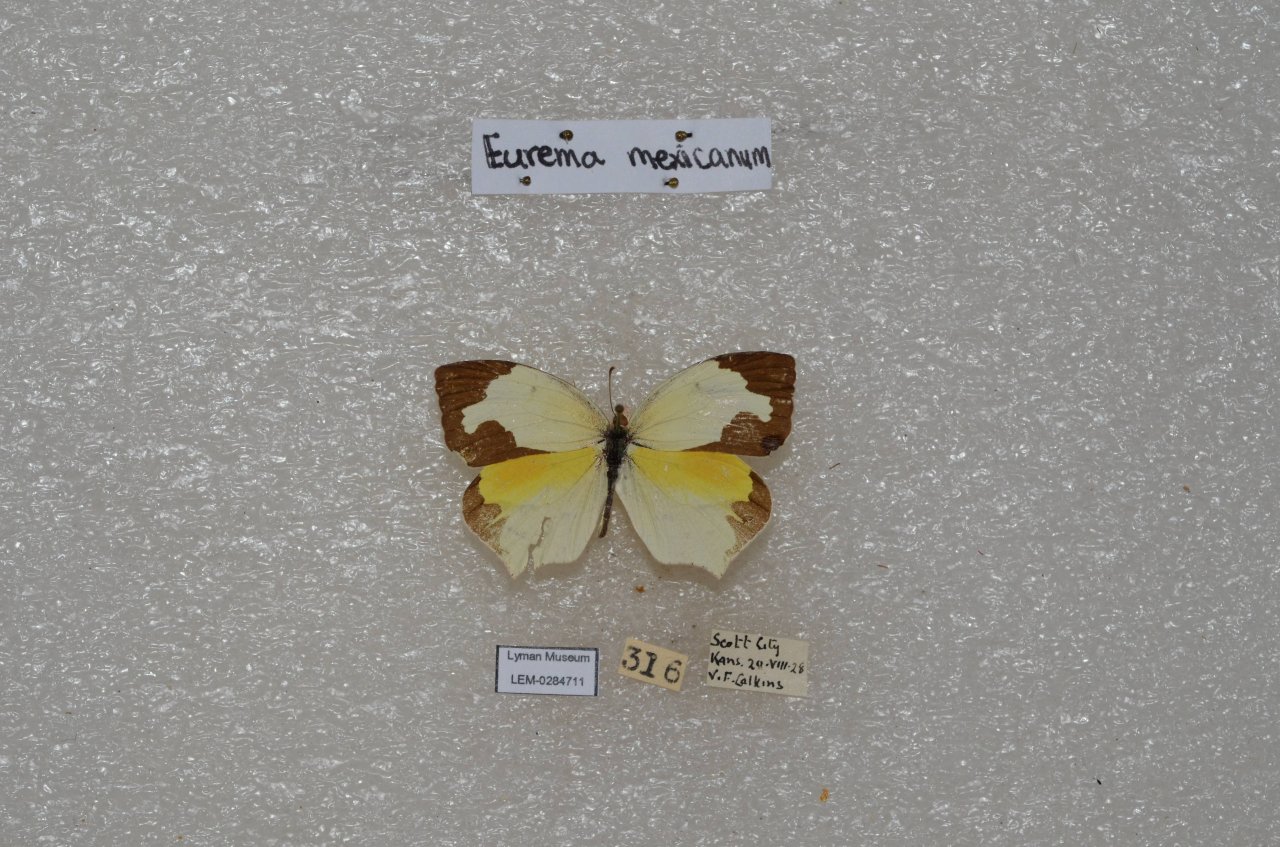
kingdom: Animalia
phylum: Arthropoda
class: Insecta
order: Lepidoptera
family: Pieridae
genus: Eurema
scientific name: Eurema mexicana
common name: Mexican Yellow
